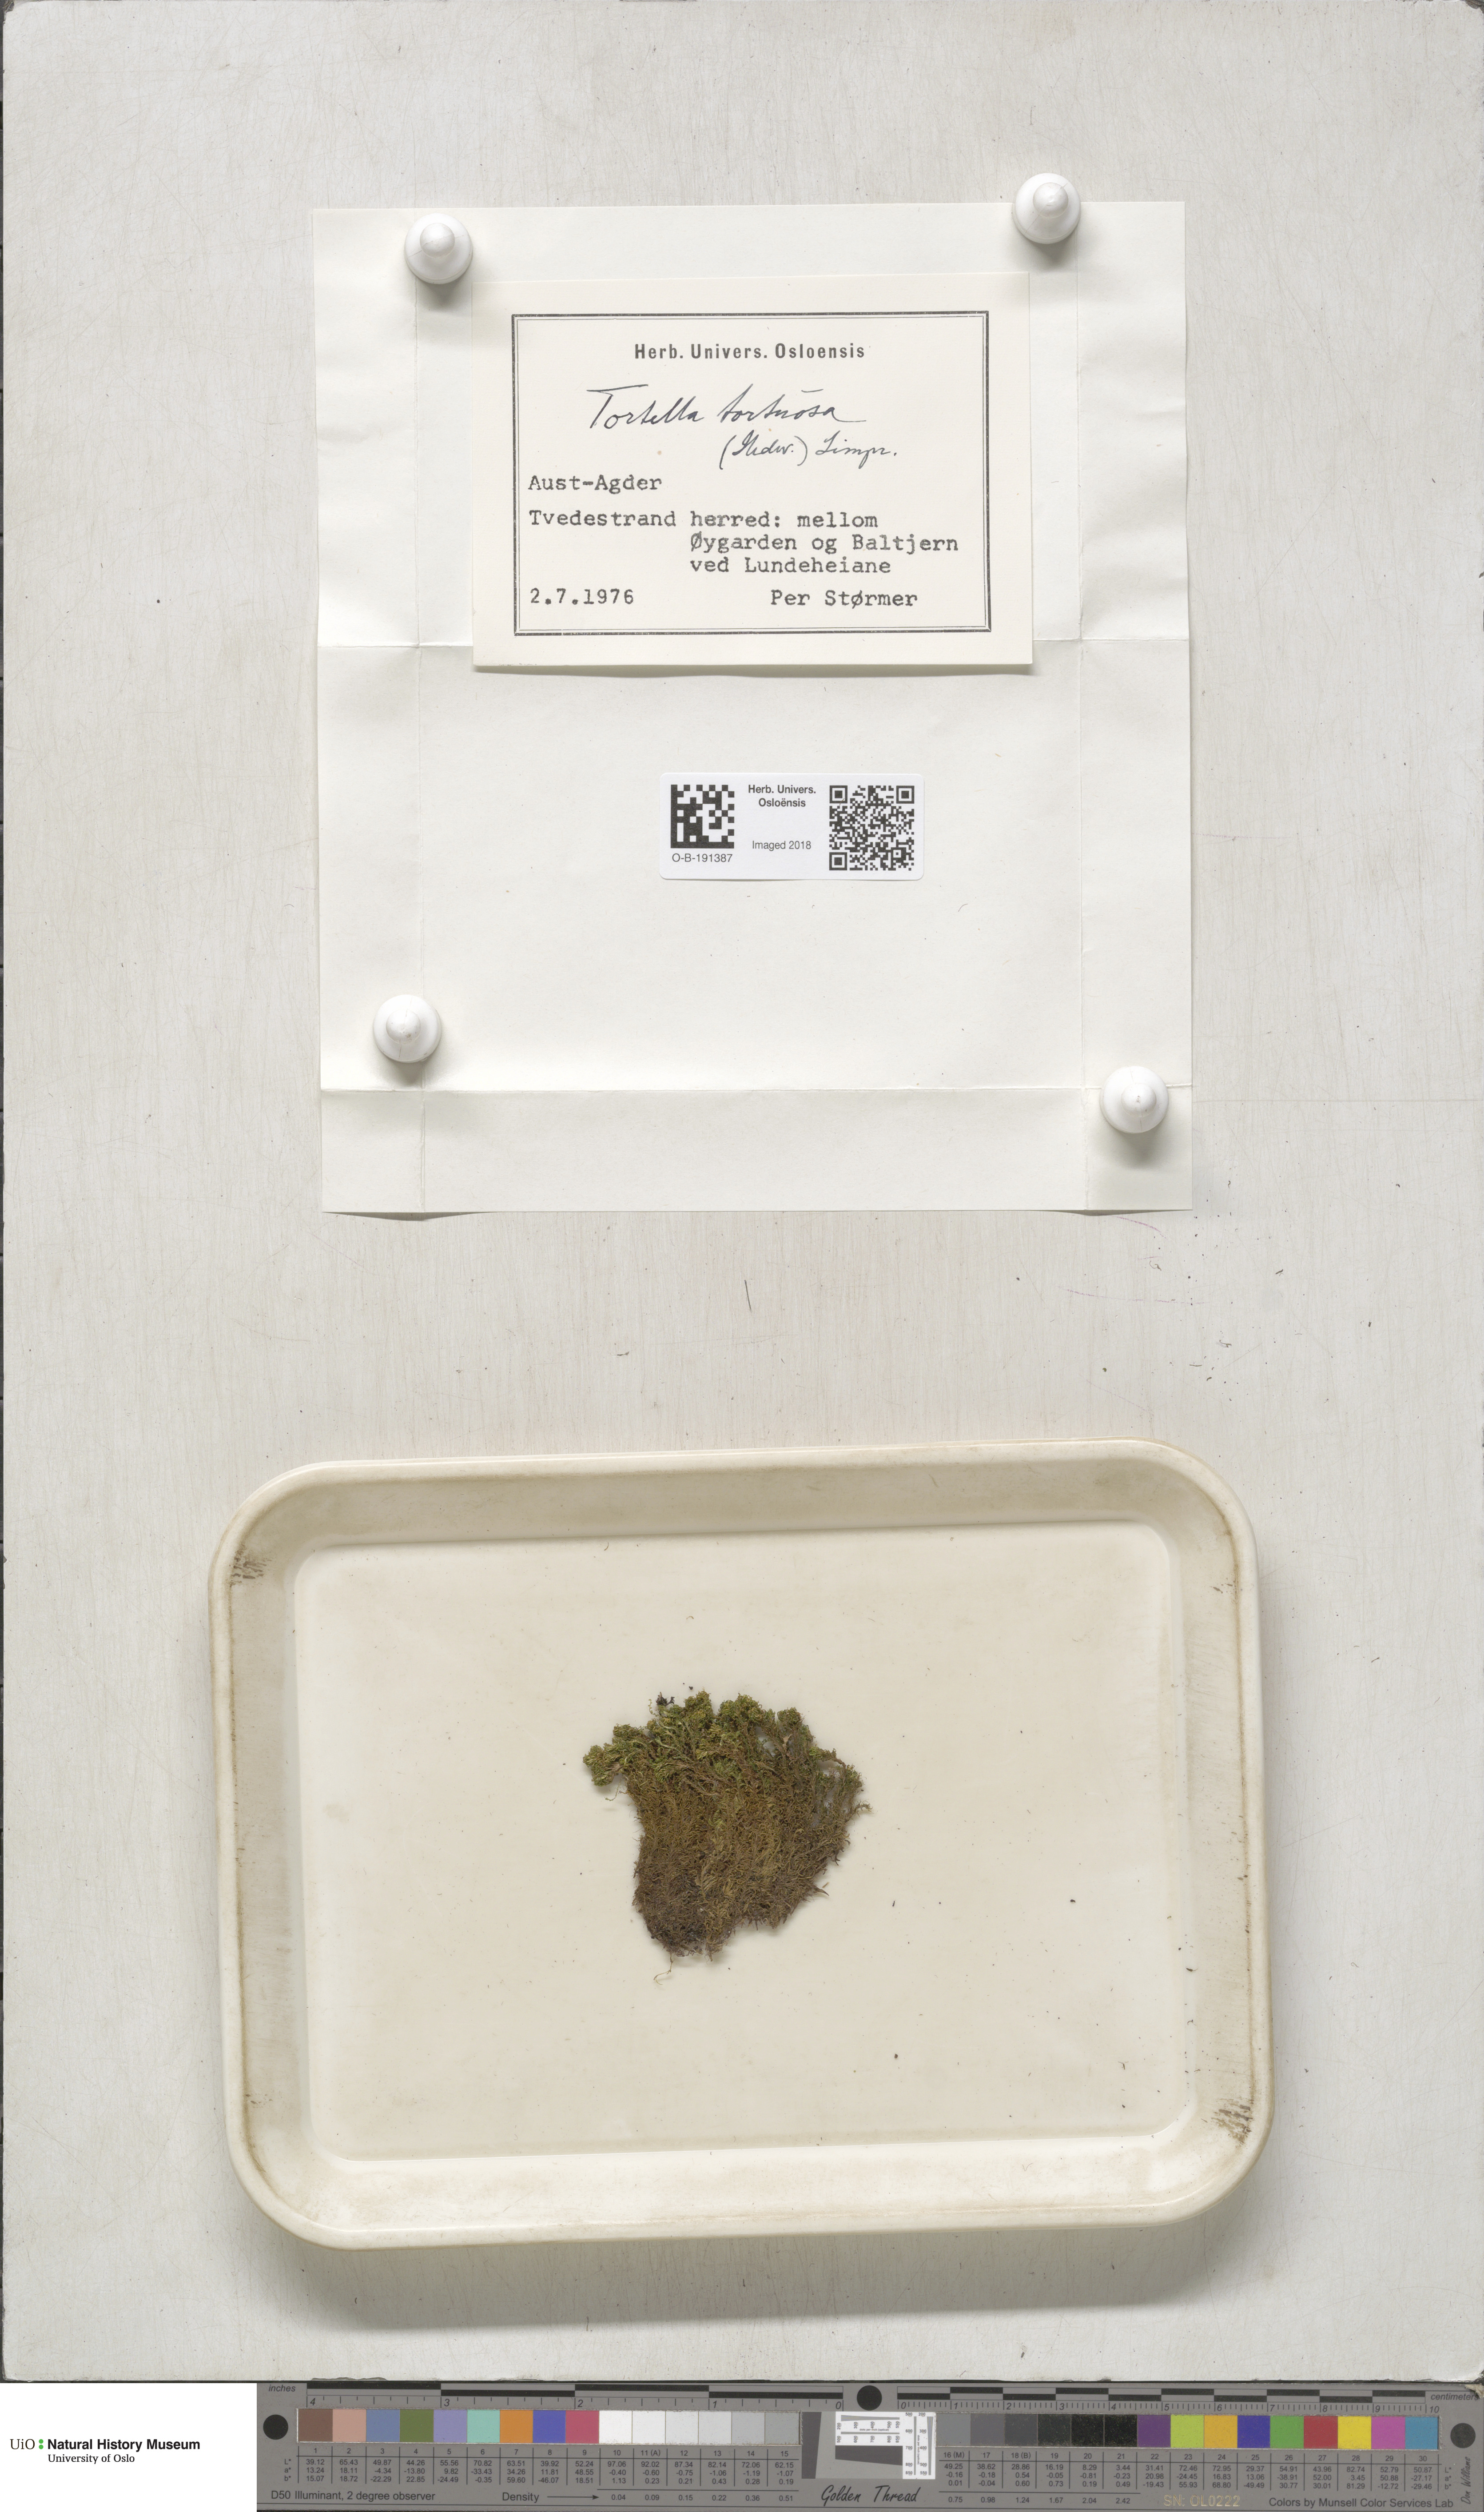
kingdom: Plantae
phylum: Bryophyta
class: Bryopsida
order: Pottiales
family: Pottiaceae
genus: Tortella
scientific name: Tortella tortuosa
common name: Frizzled crisp moss
